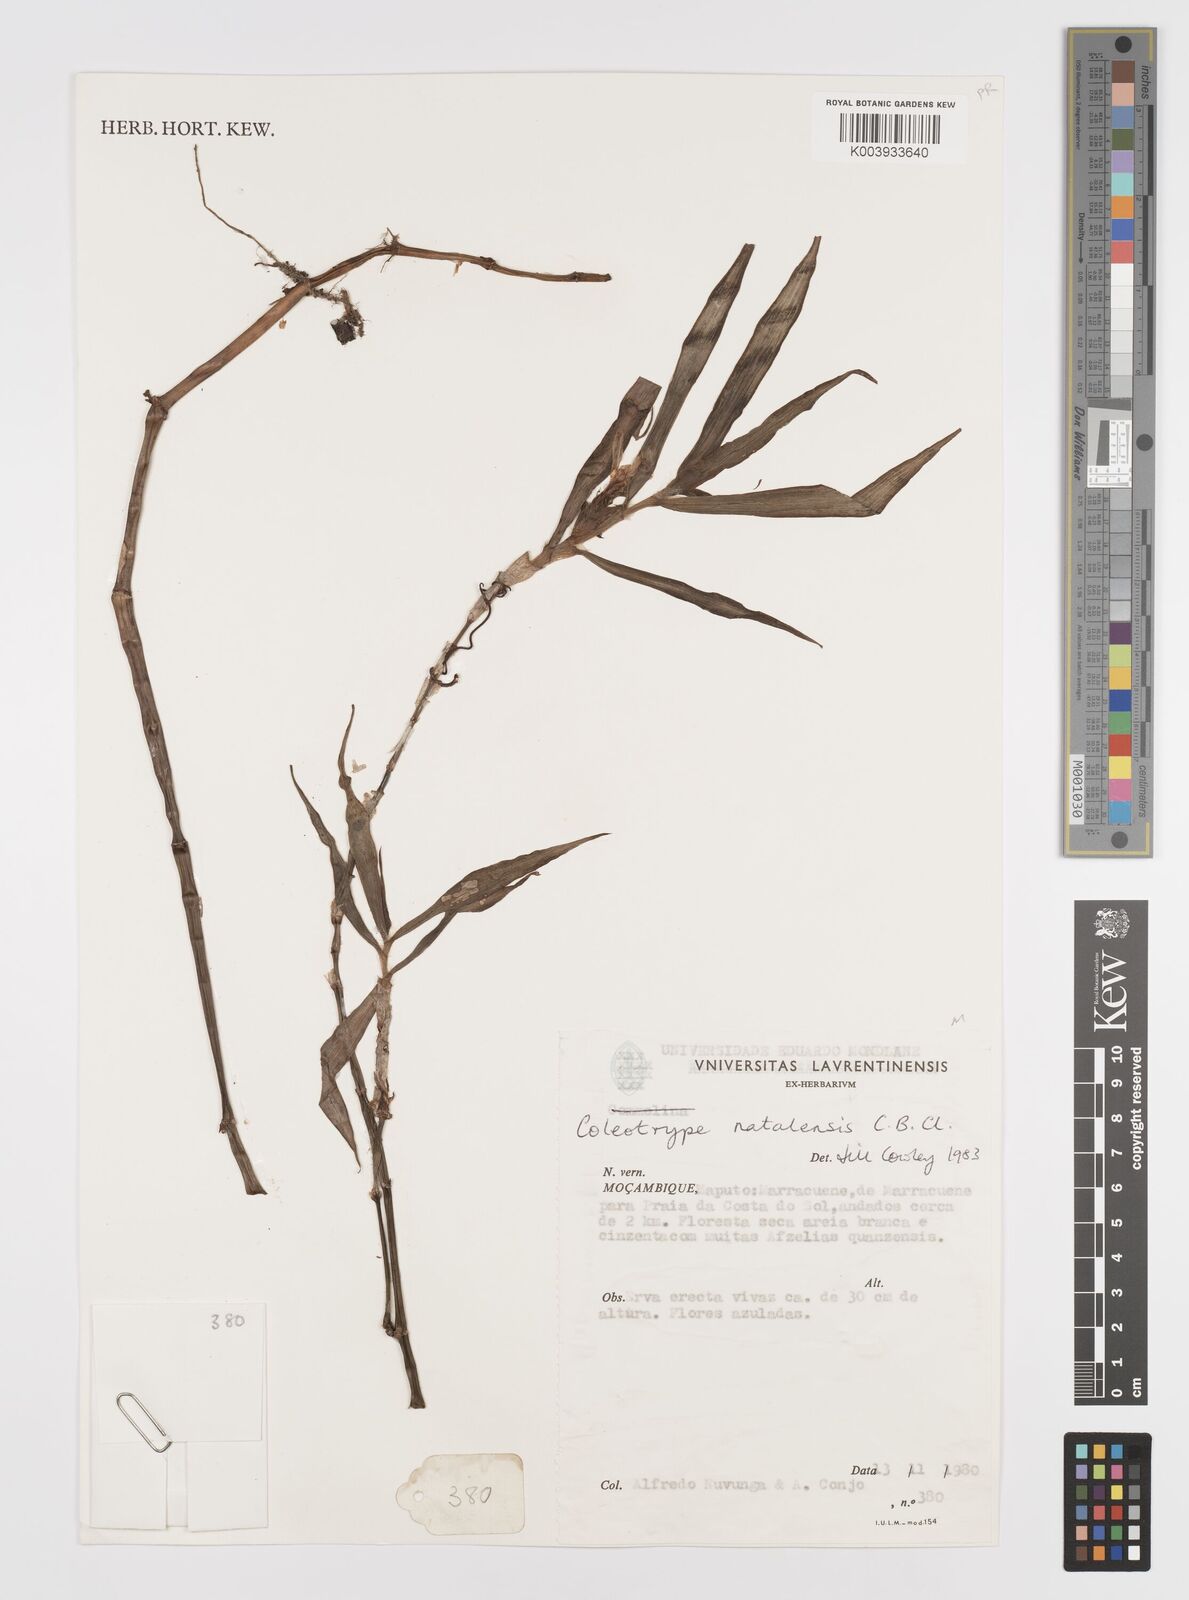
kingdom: Plantae
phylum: Tracheophyta
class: Liliopsida
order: Commelinales
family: Commelinaceae
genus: Coleotrype
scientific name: Coleotrype natalensis
